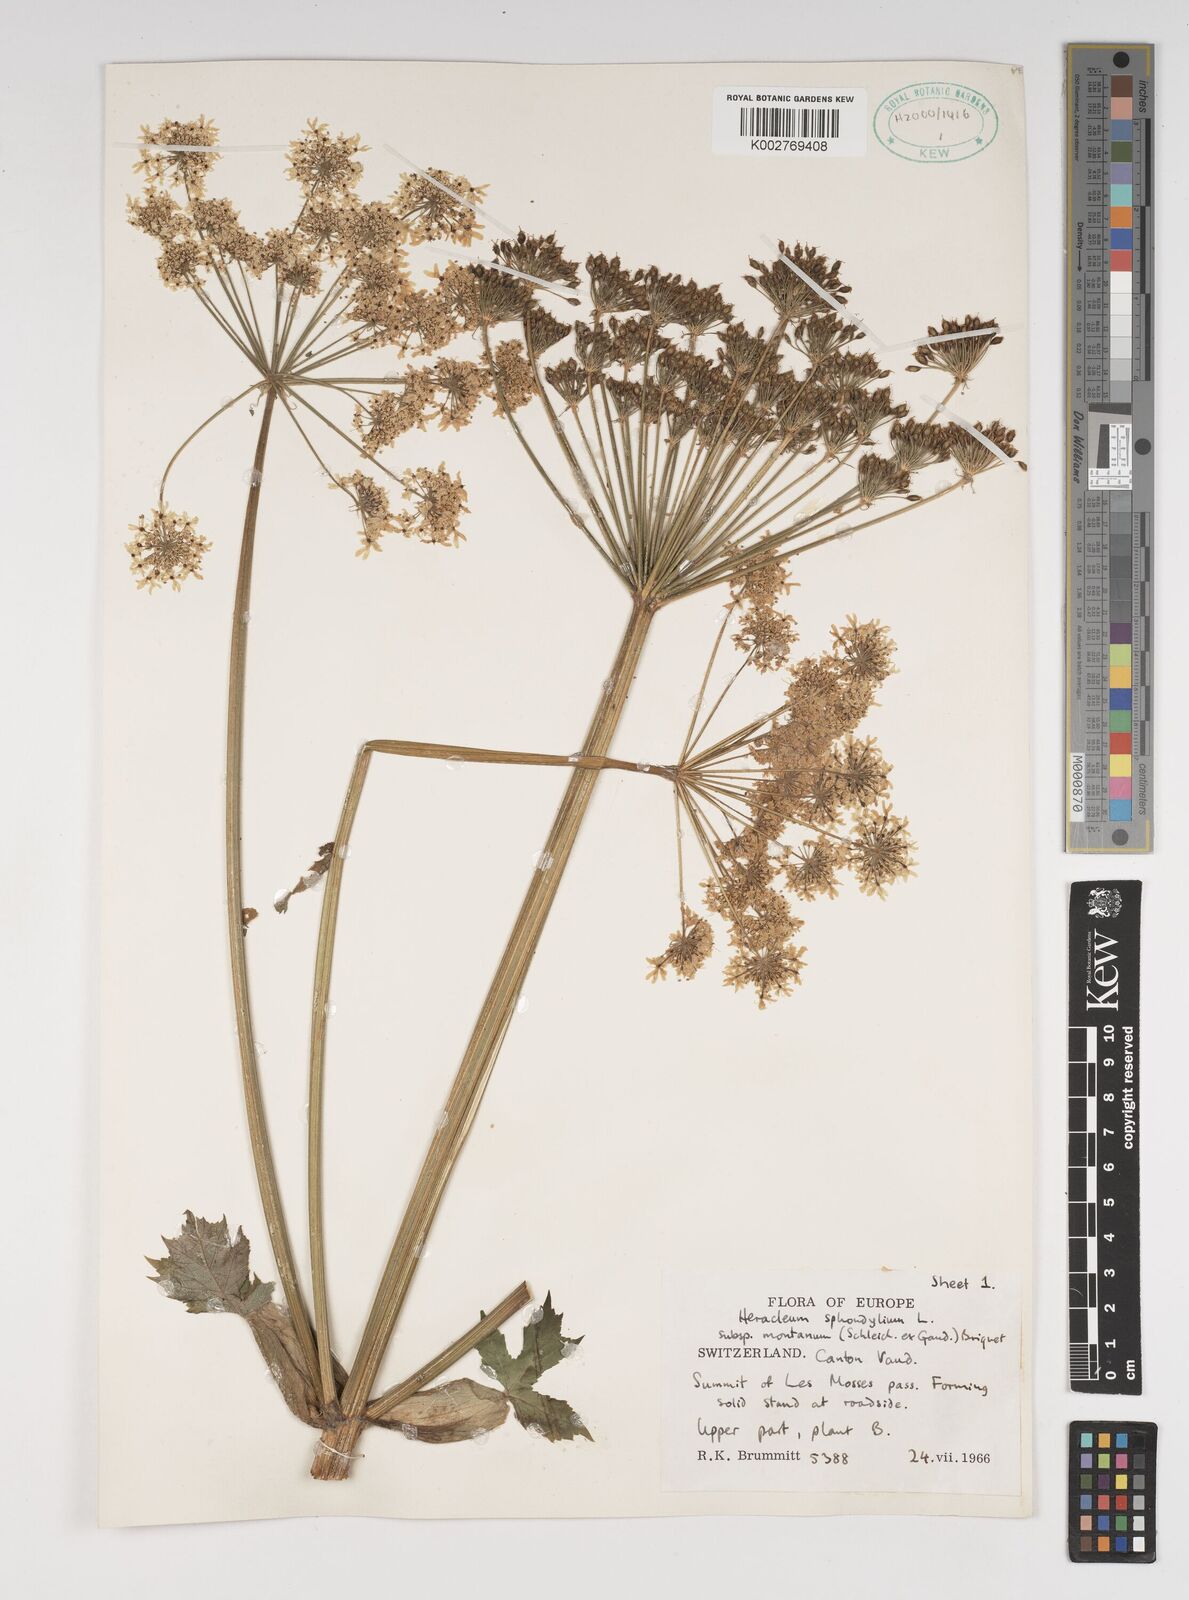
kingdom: Plantae
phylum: Tracheophyta
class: Magnoliopsida
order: Apiales
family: Apiaceae
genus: Heracleum
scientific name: Heracleum sphondylium
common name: Hogweed
